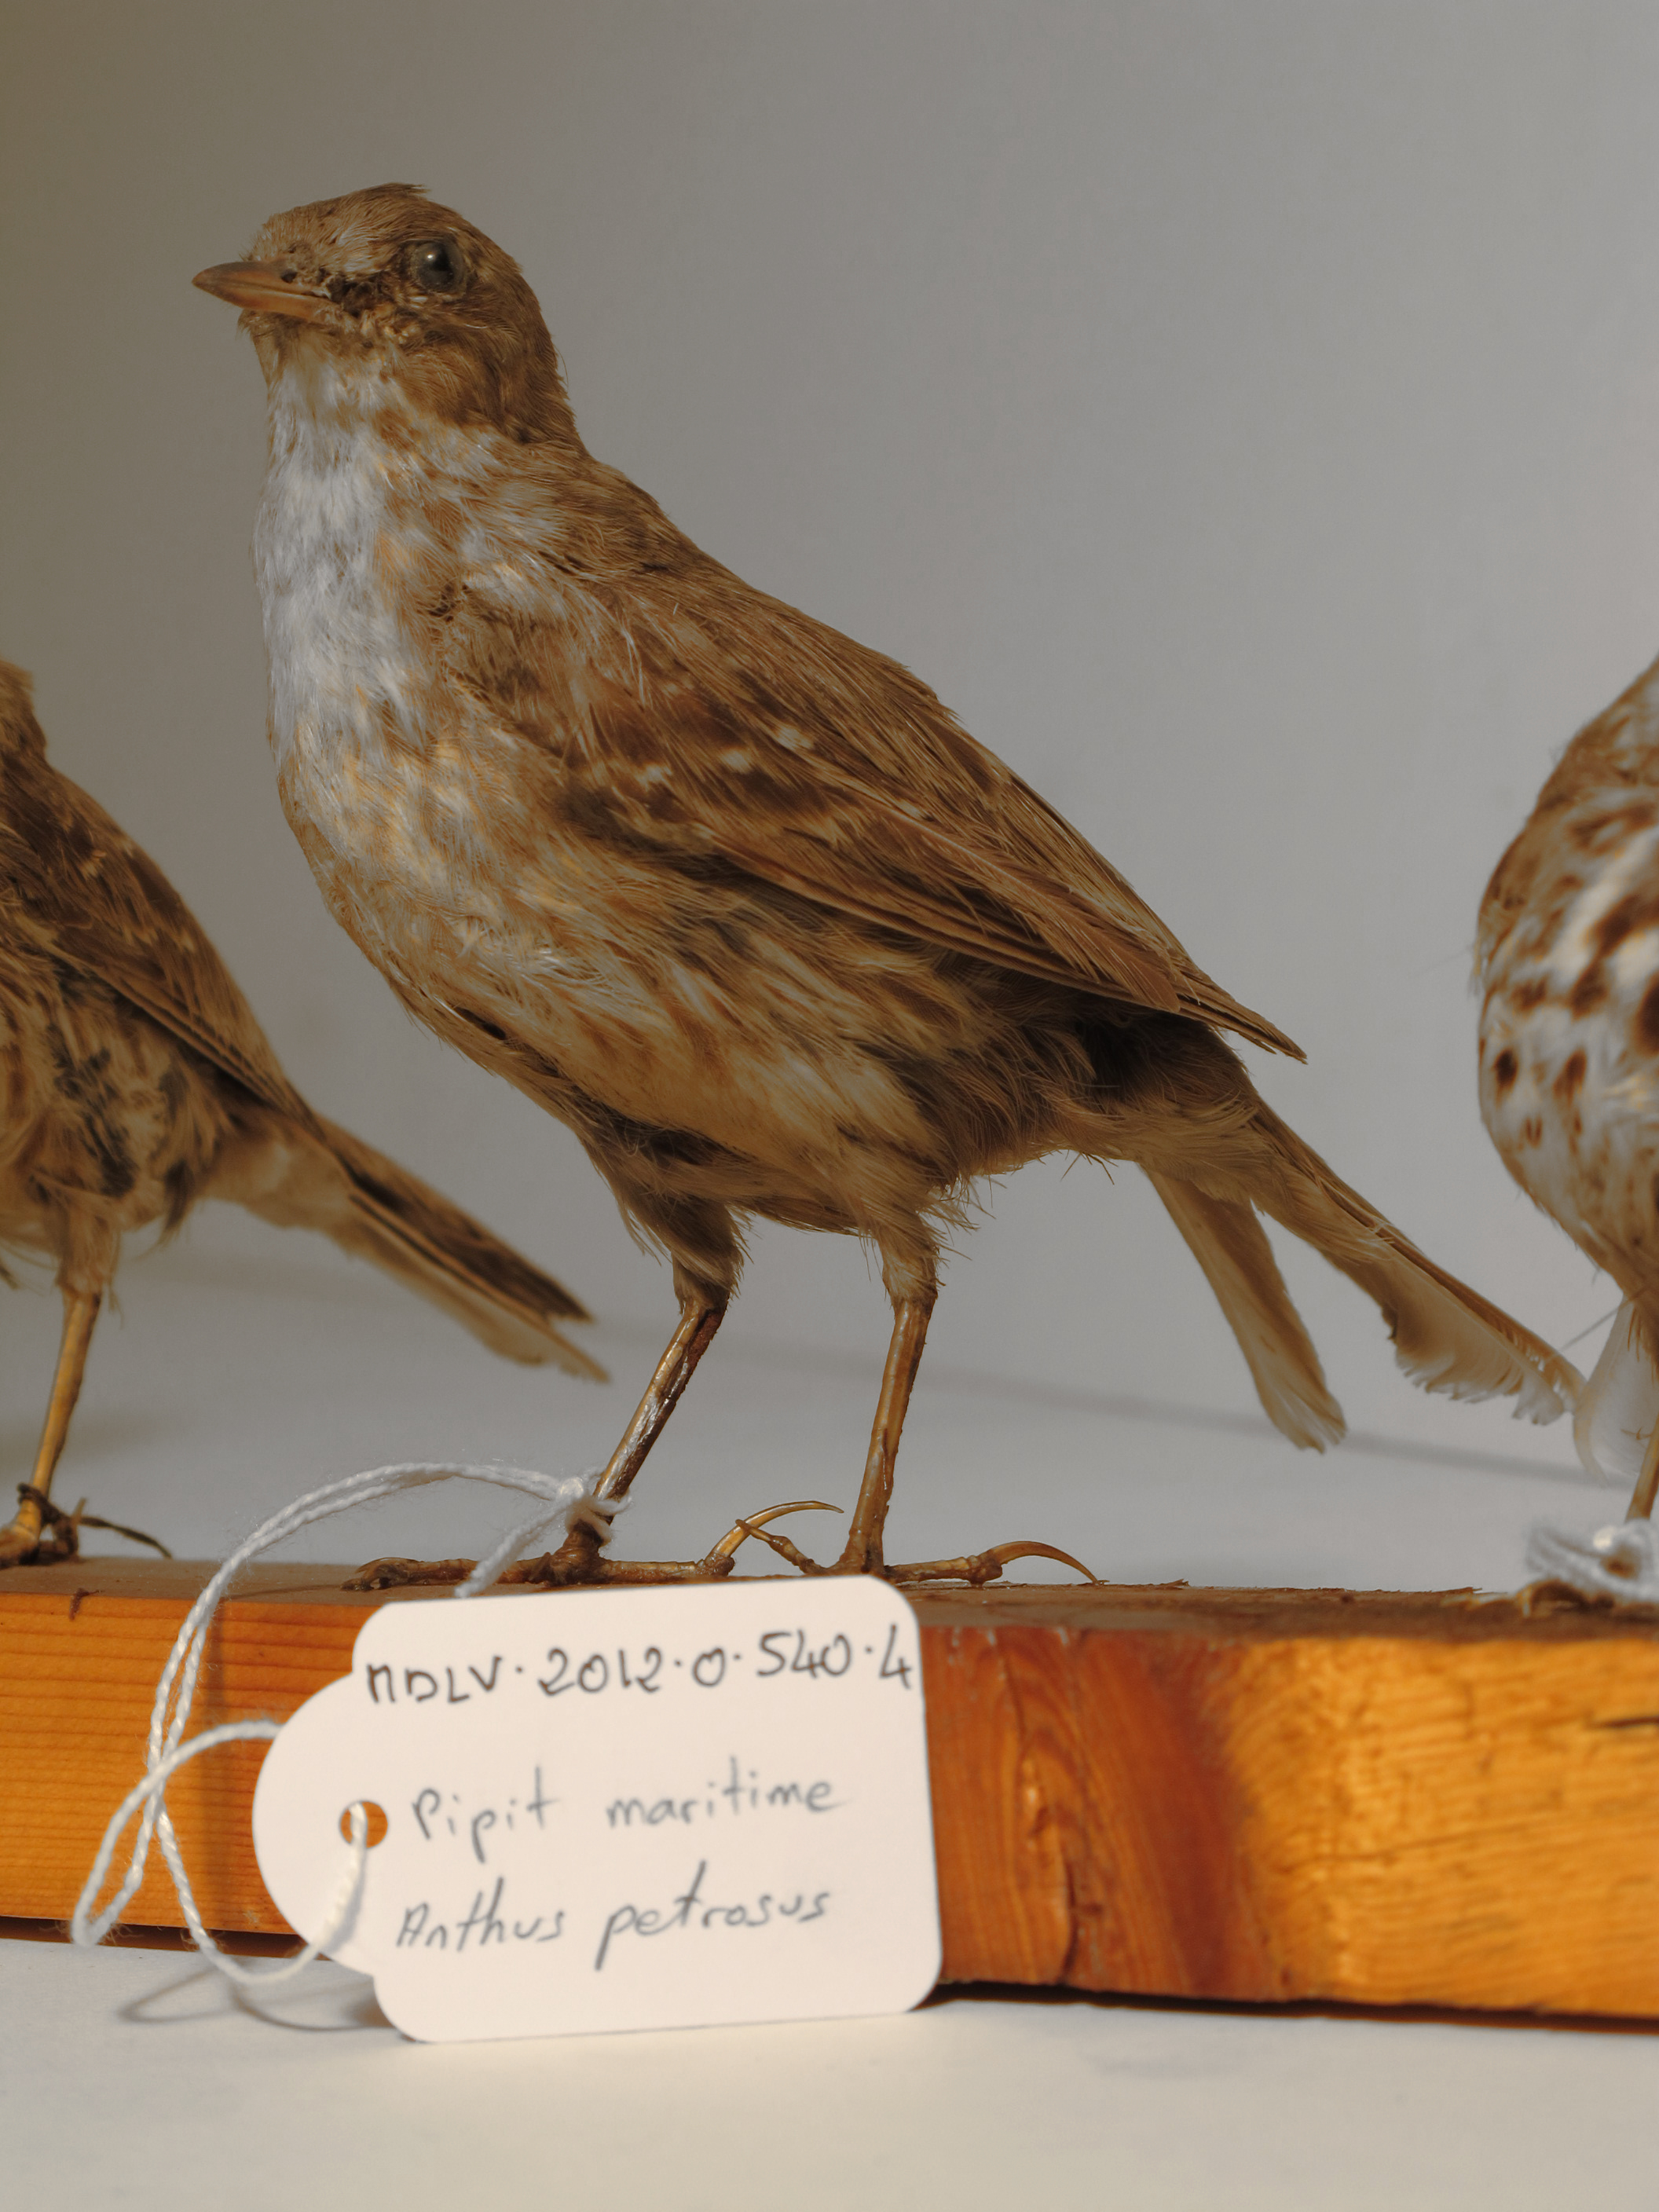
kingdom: Animalia
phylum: Chordata
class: Aves
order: Passeriformes
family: Motacillidae
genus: Anthus
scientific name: Anthus petrosus
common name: Rock Pipit
